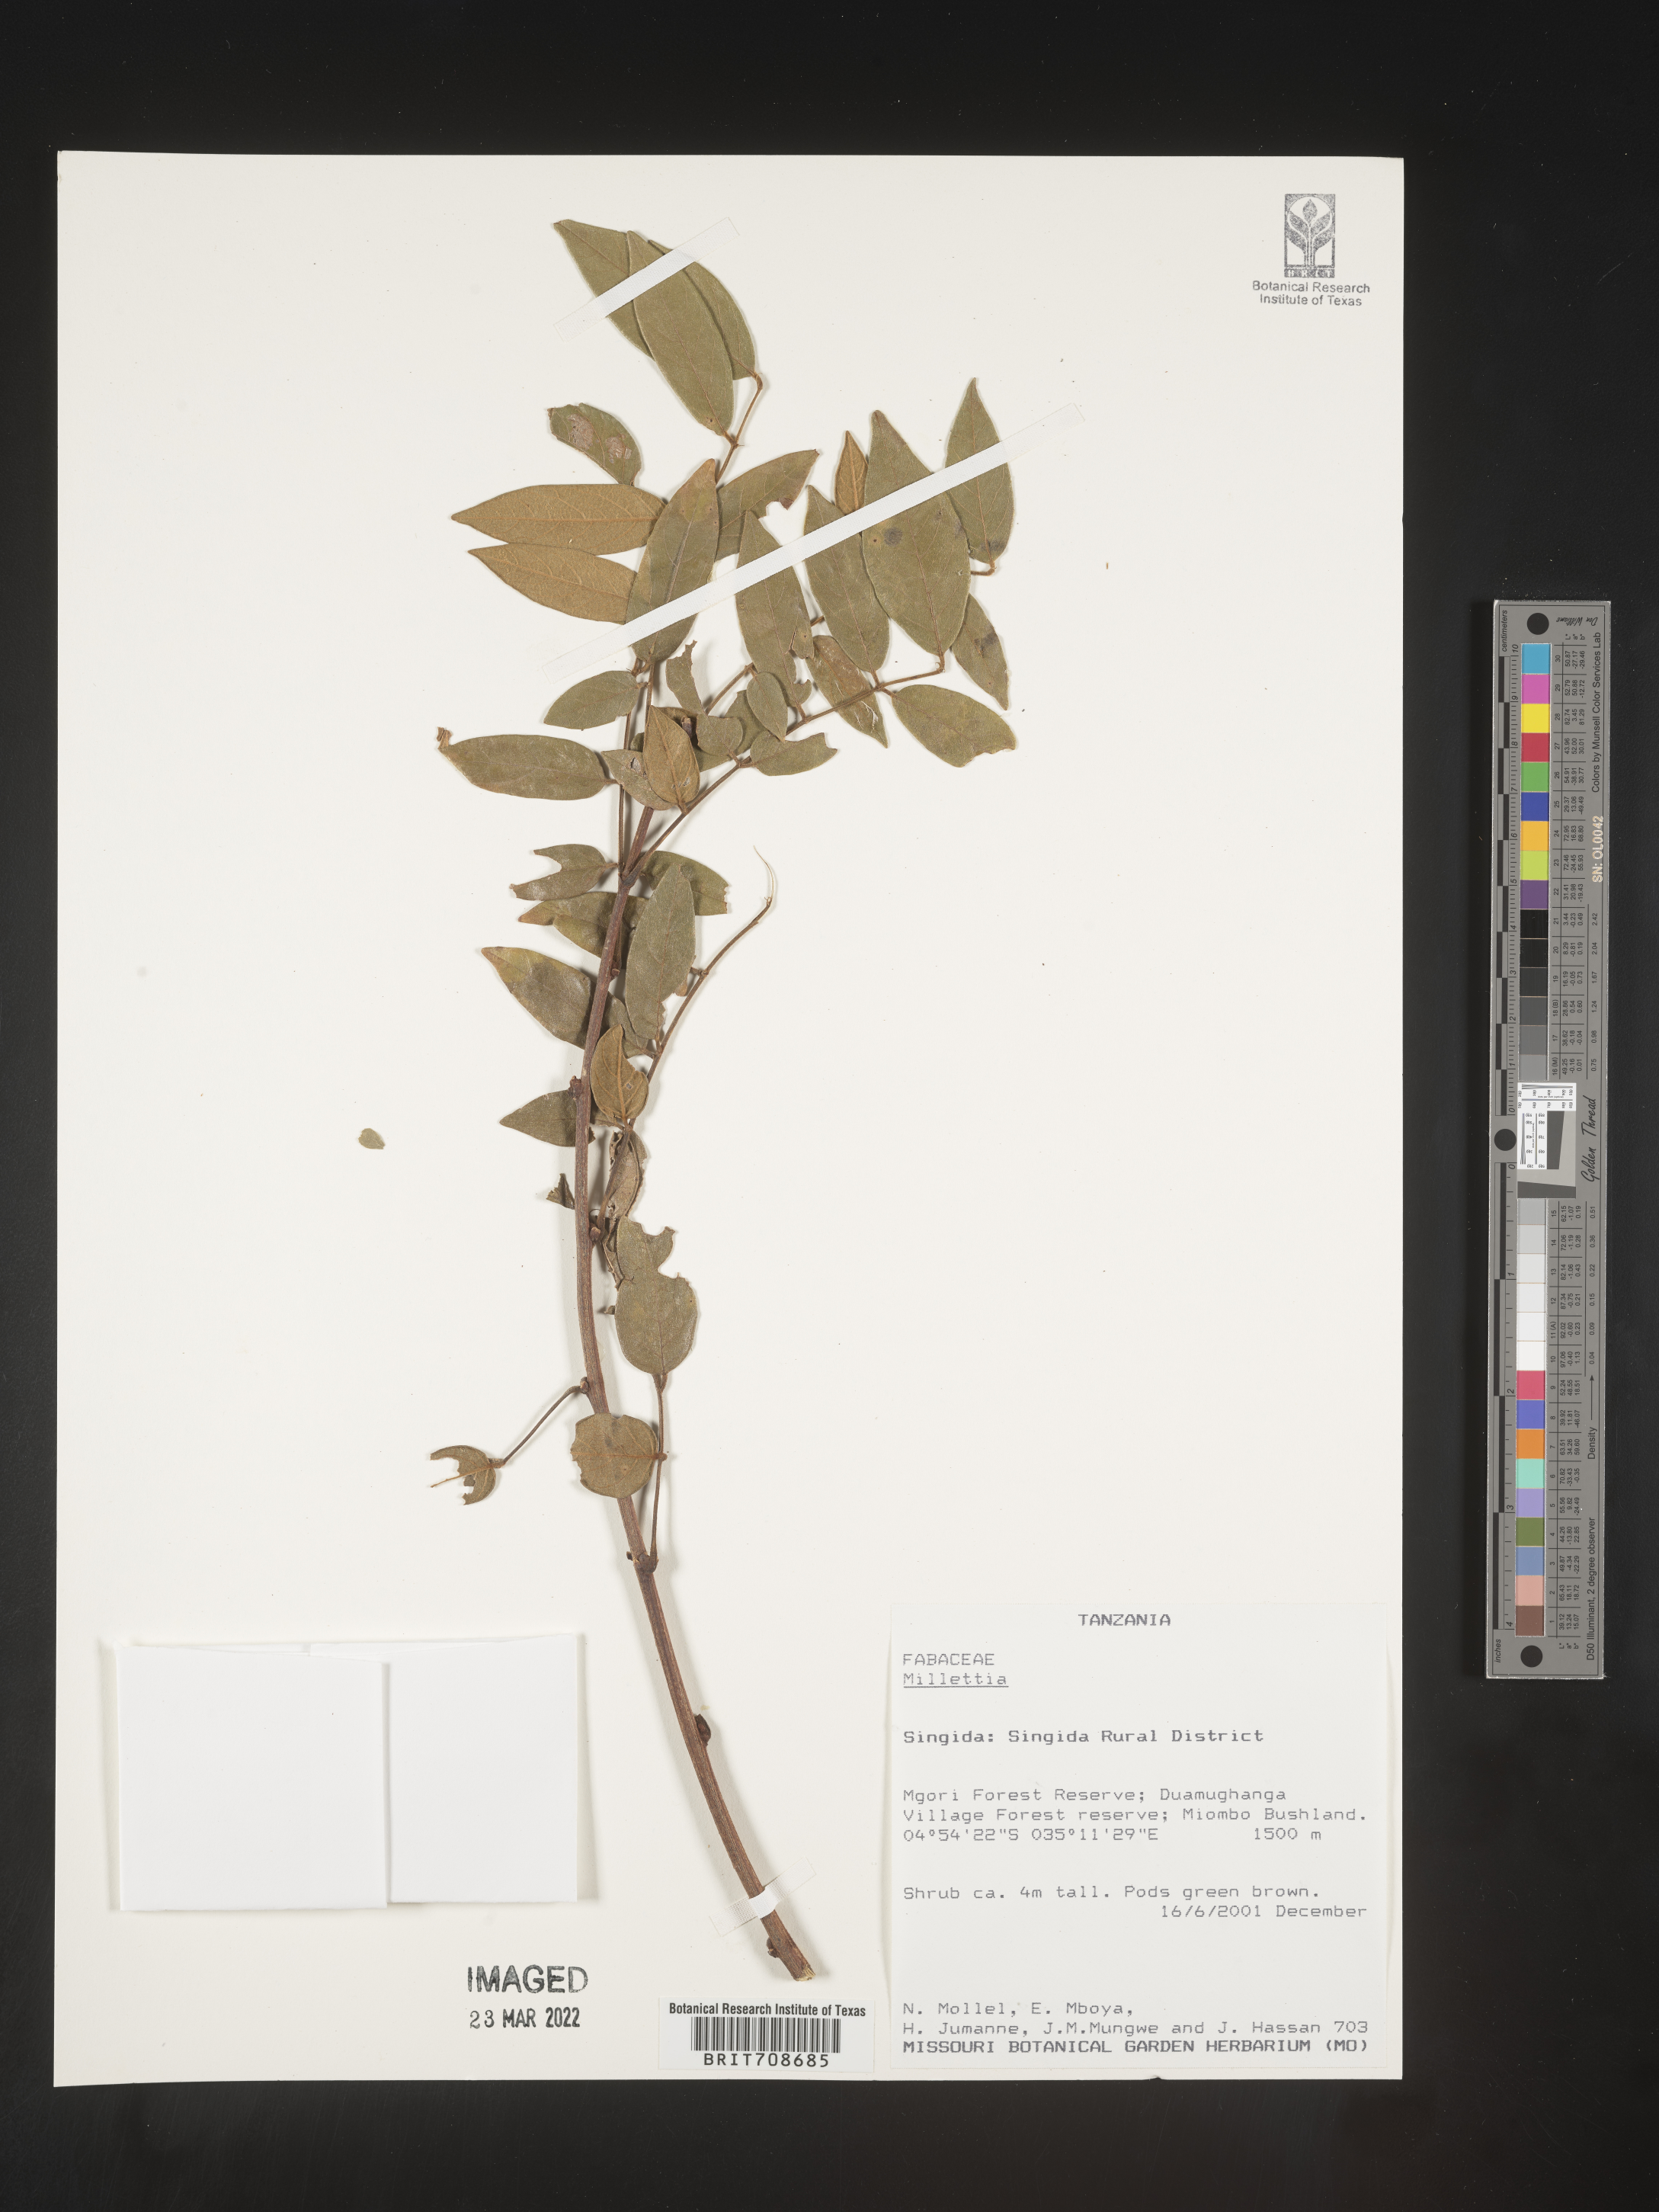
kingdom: Plantae
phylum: Tracheophyta
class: Magnoliopsida
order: Fabales
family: Fabaceae
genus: Millettia
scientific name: Millettia
